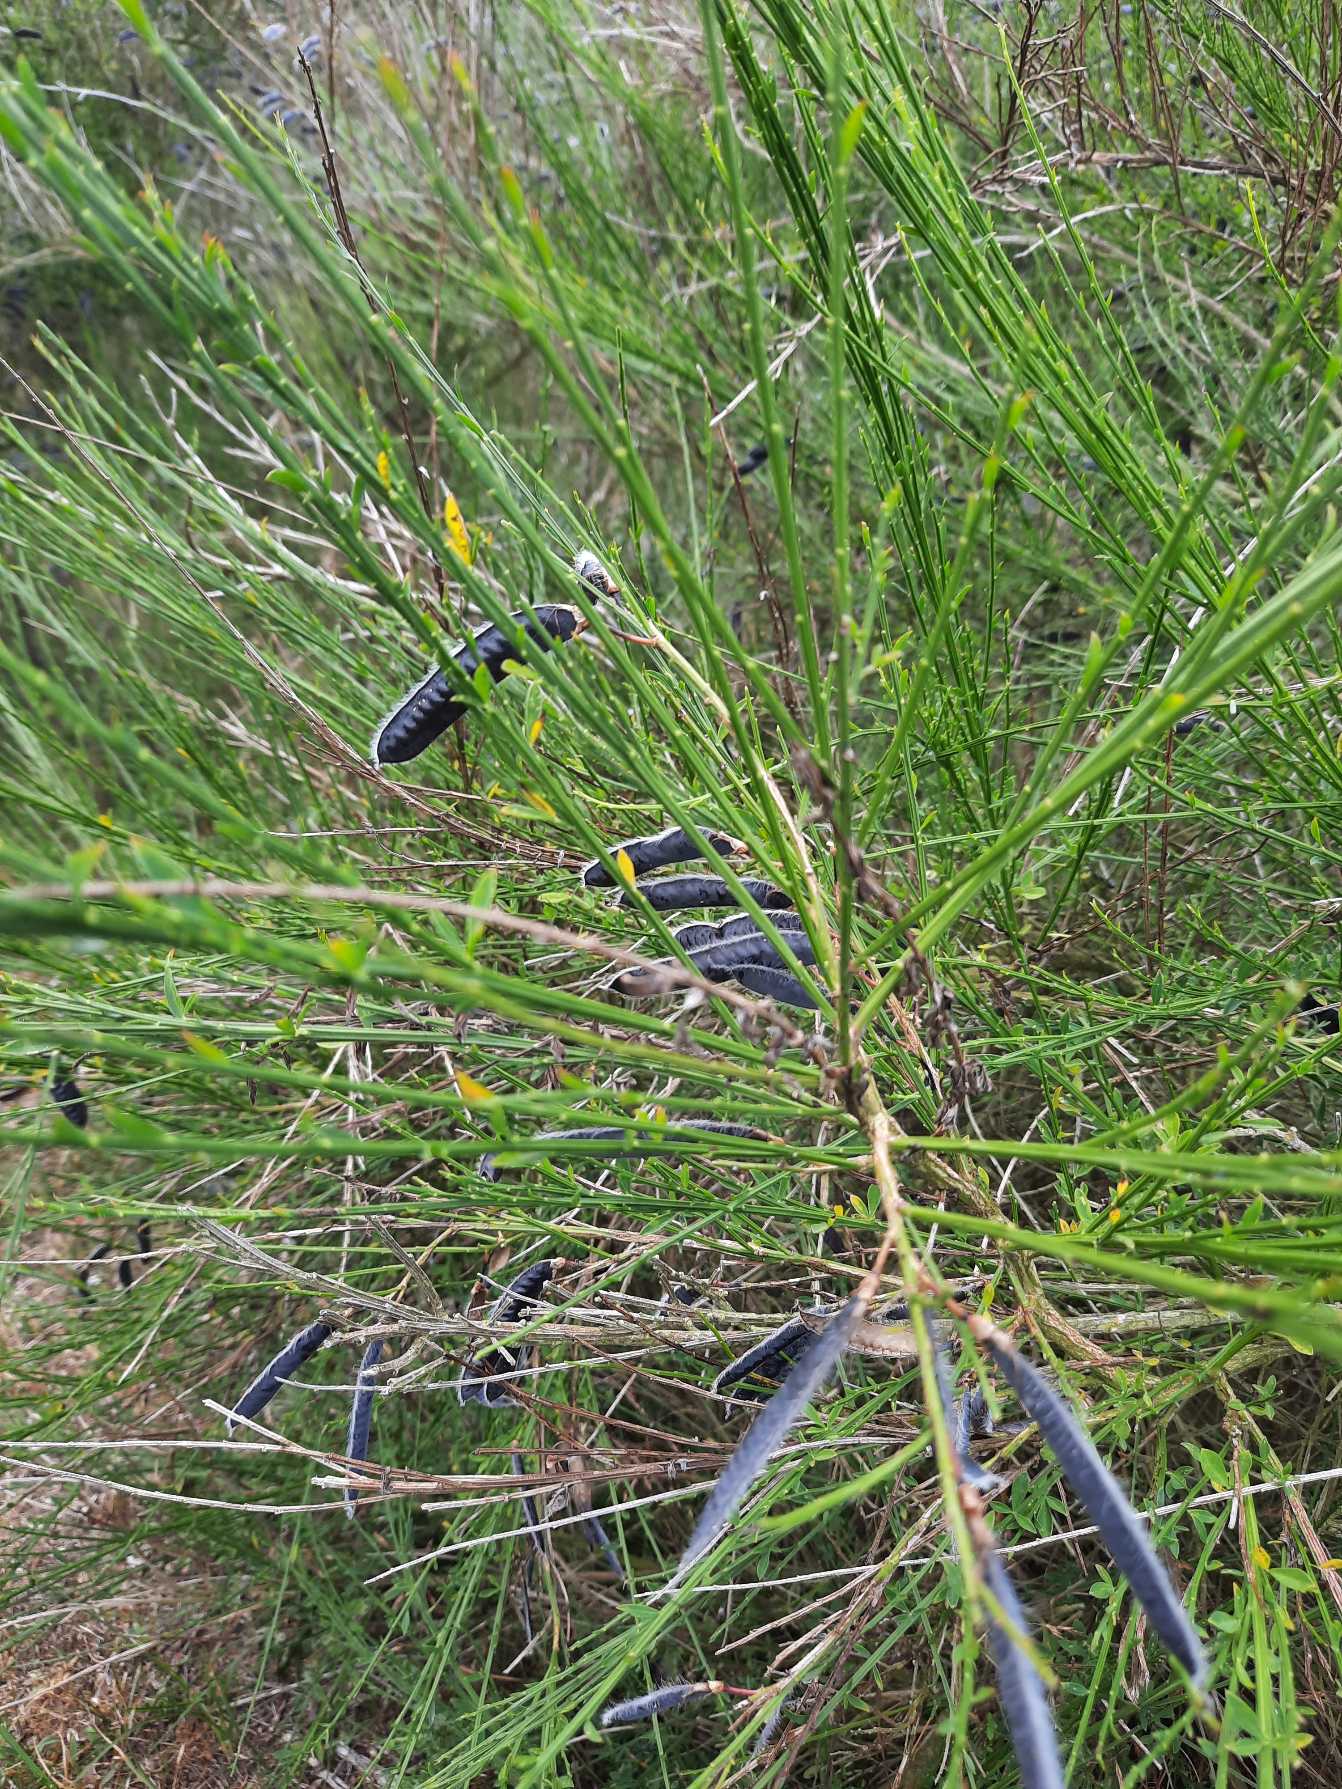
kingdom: Plantae
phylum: Tracheophyta
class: Magnoliopsida
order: Fabales
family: Fabaceae
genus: Cytisus
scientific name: Cytisus scoparius
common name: Almindelig gyvel
